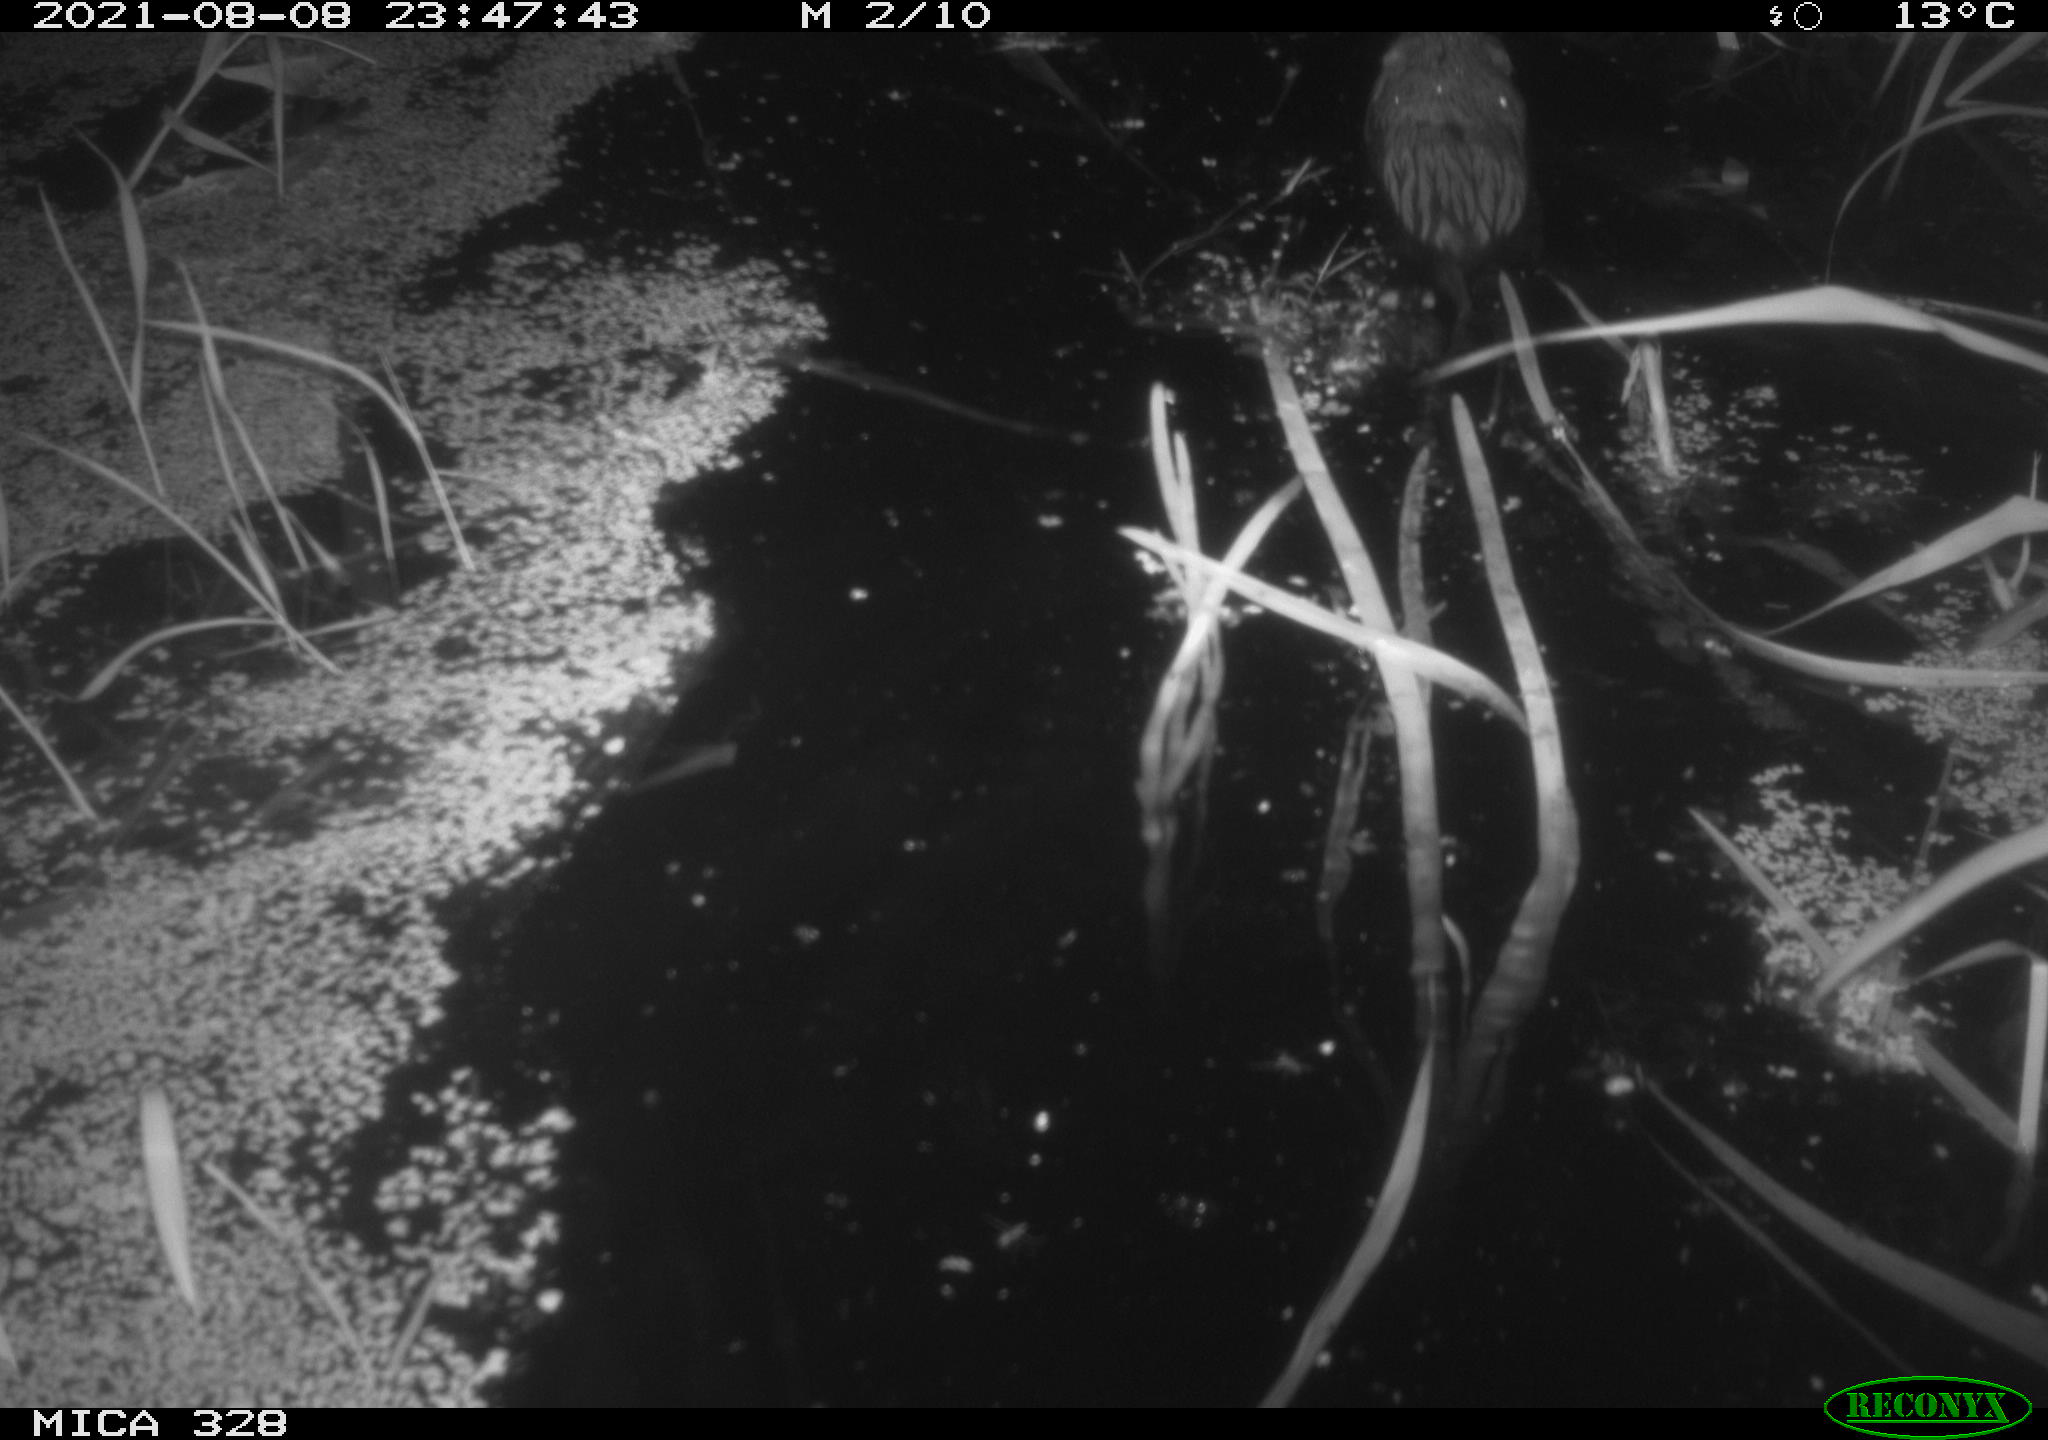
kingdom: Animalia
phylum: Chordata
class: Mammalia
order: Rodentia
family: Cricetidae
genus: Ondatra
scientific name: Ondatra zibethicus
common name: Muskrat
